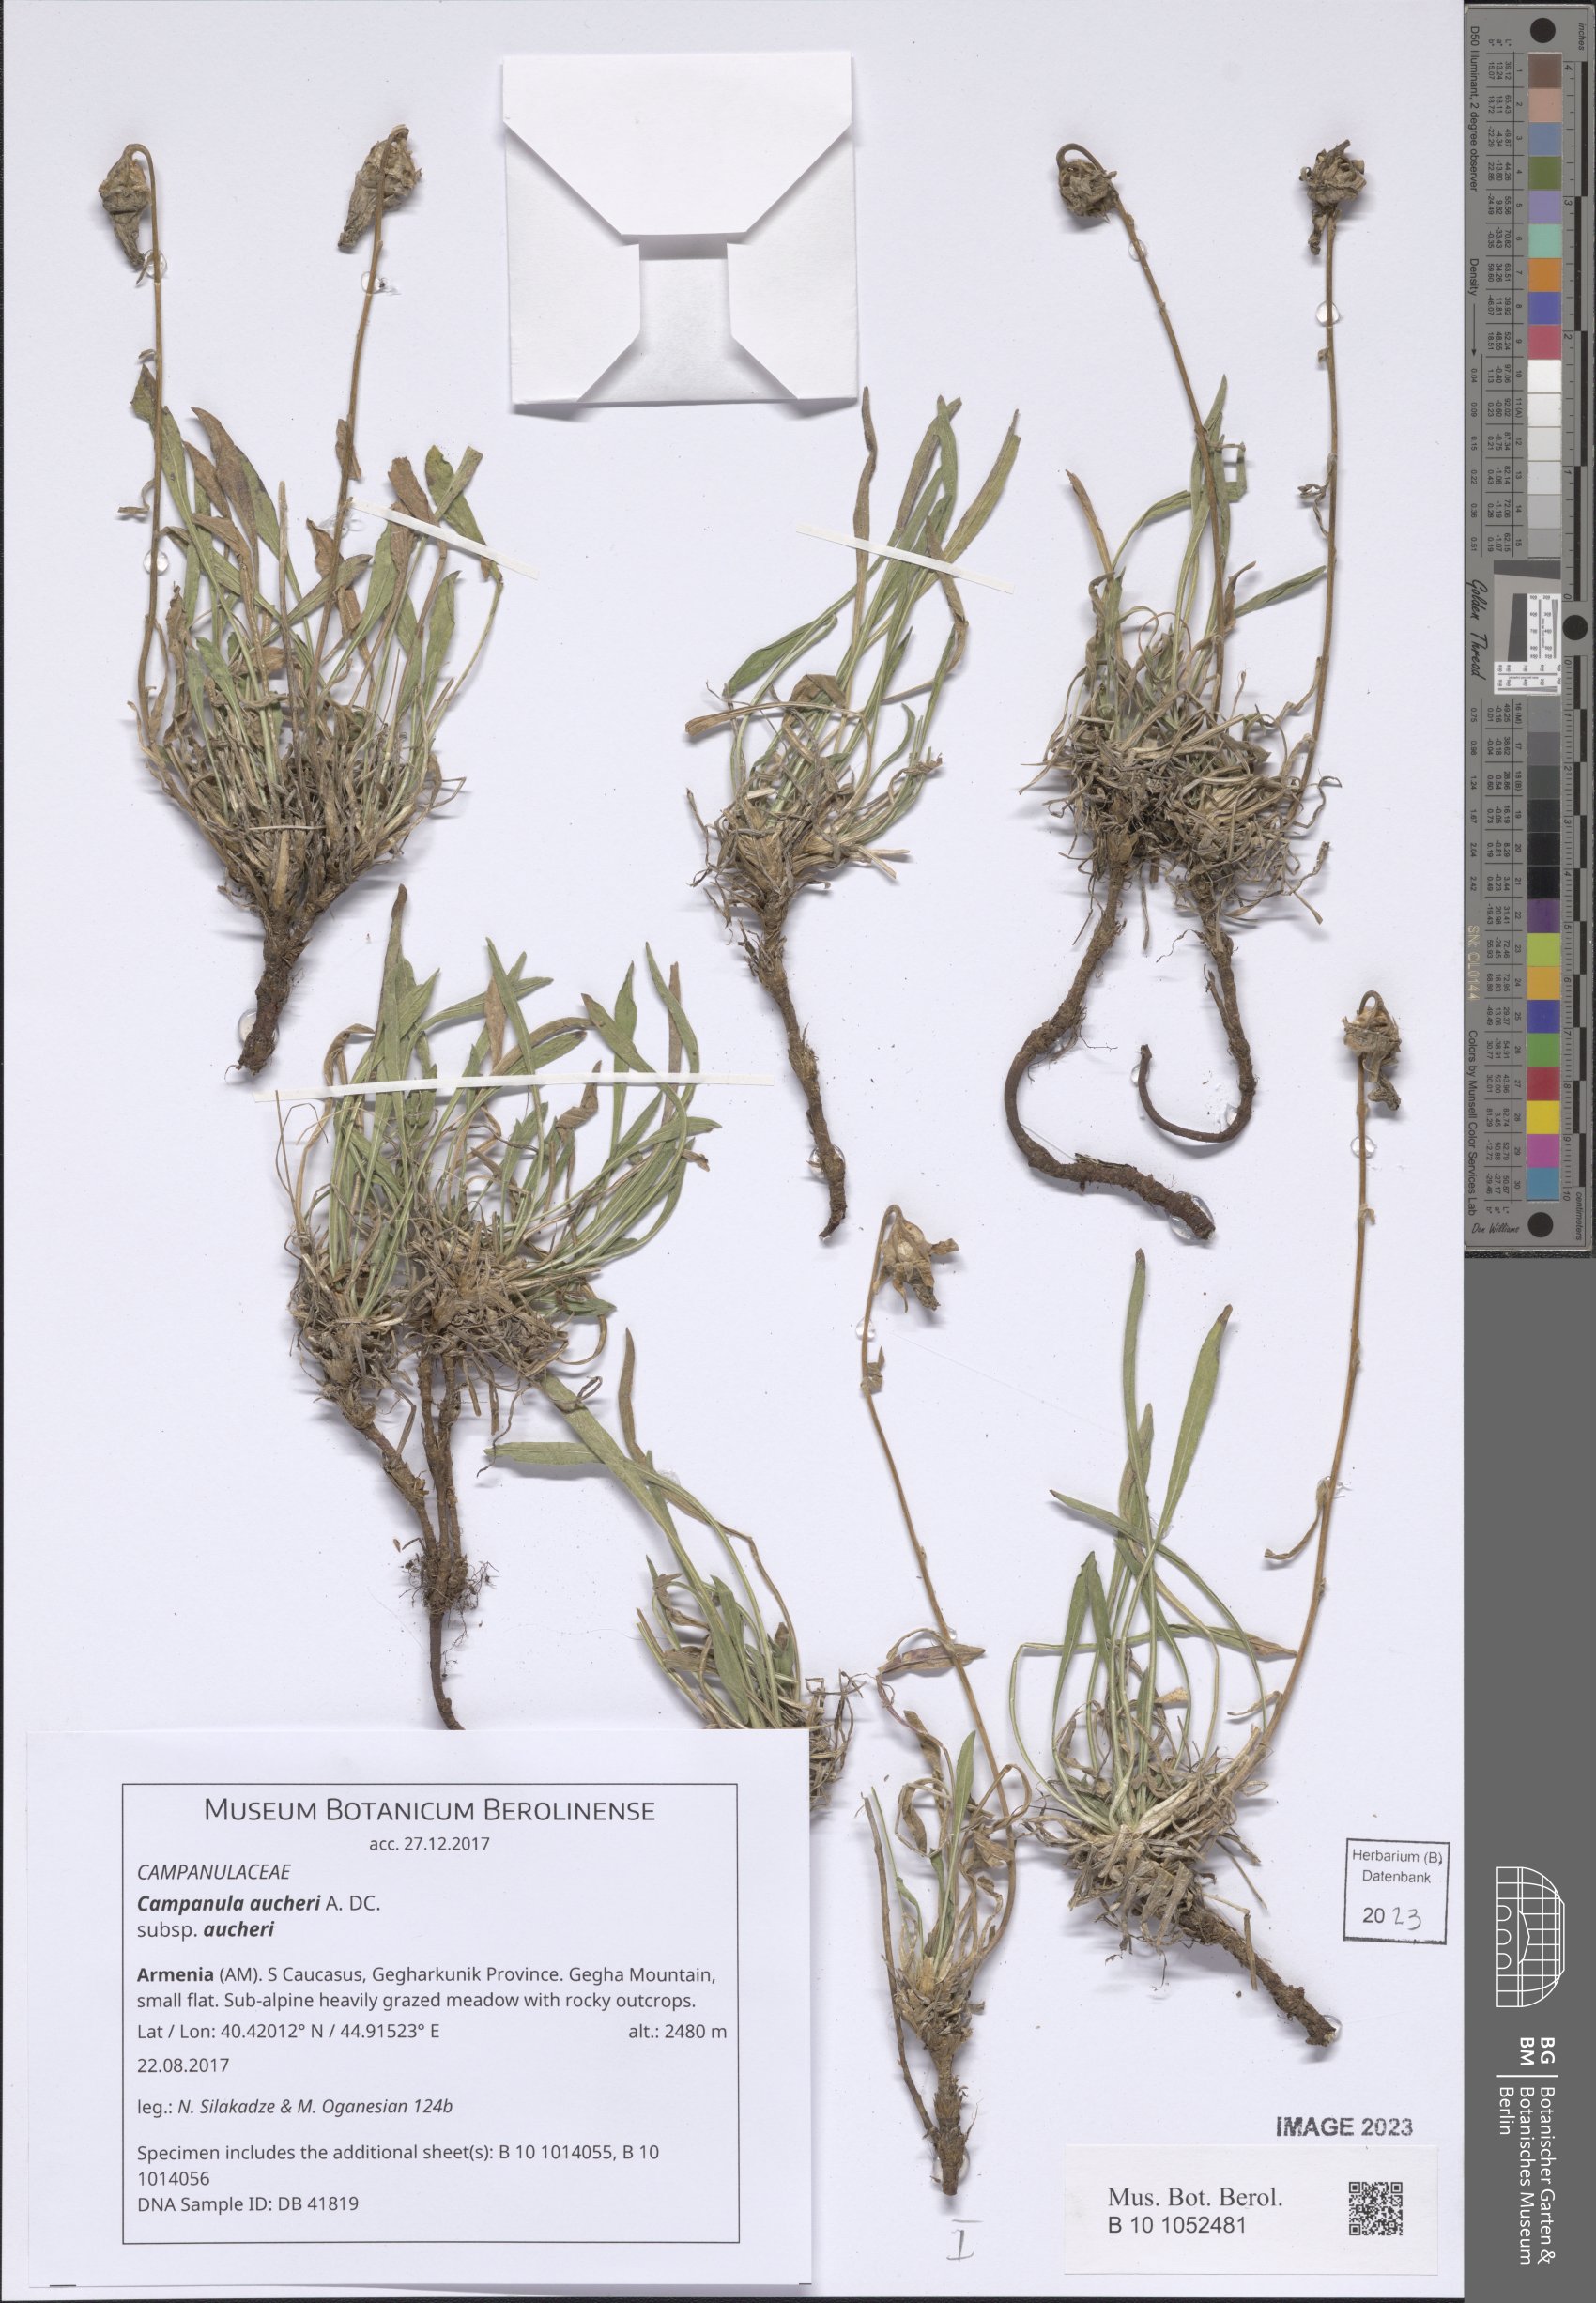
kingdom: Plantae
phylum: Tracheophyta
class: Magnoliopsida
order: Asterales
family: Campanulaceae
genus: Campanula
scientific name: Campanula saxifraga
